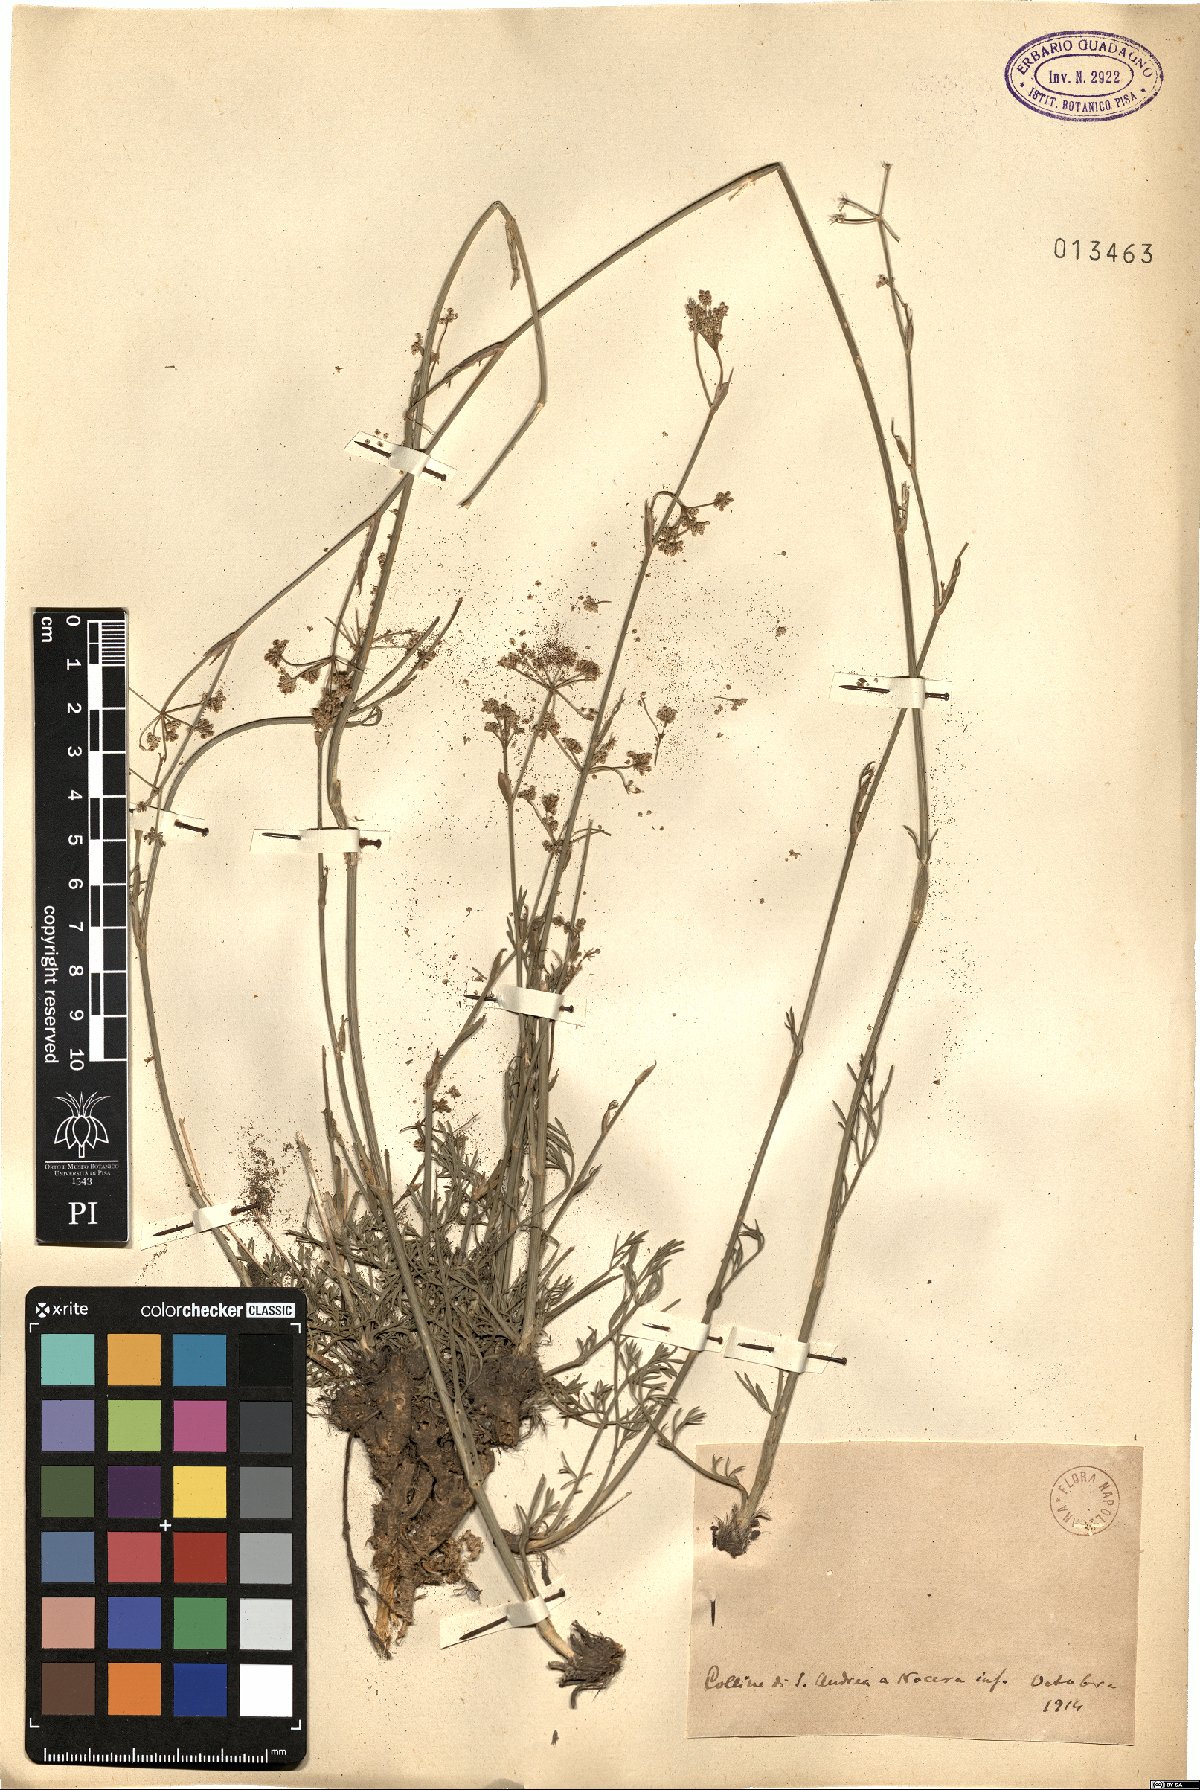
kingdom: Plantae
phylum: Tracheophyta
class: Magnoliopsida
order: Apiales
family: Apiaceae
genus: Seseli
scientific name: Seseli
